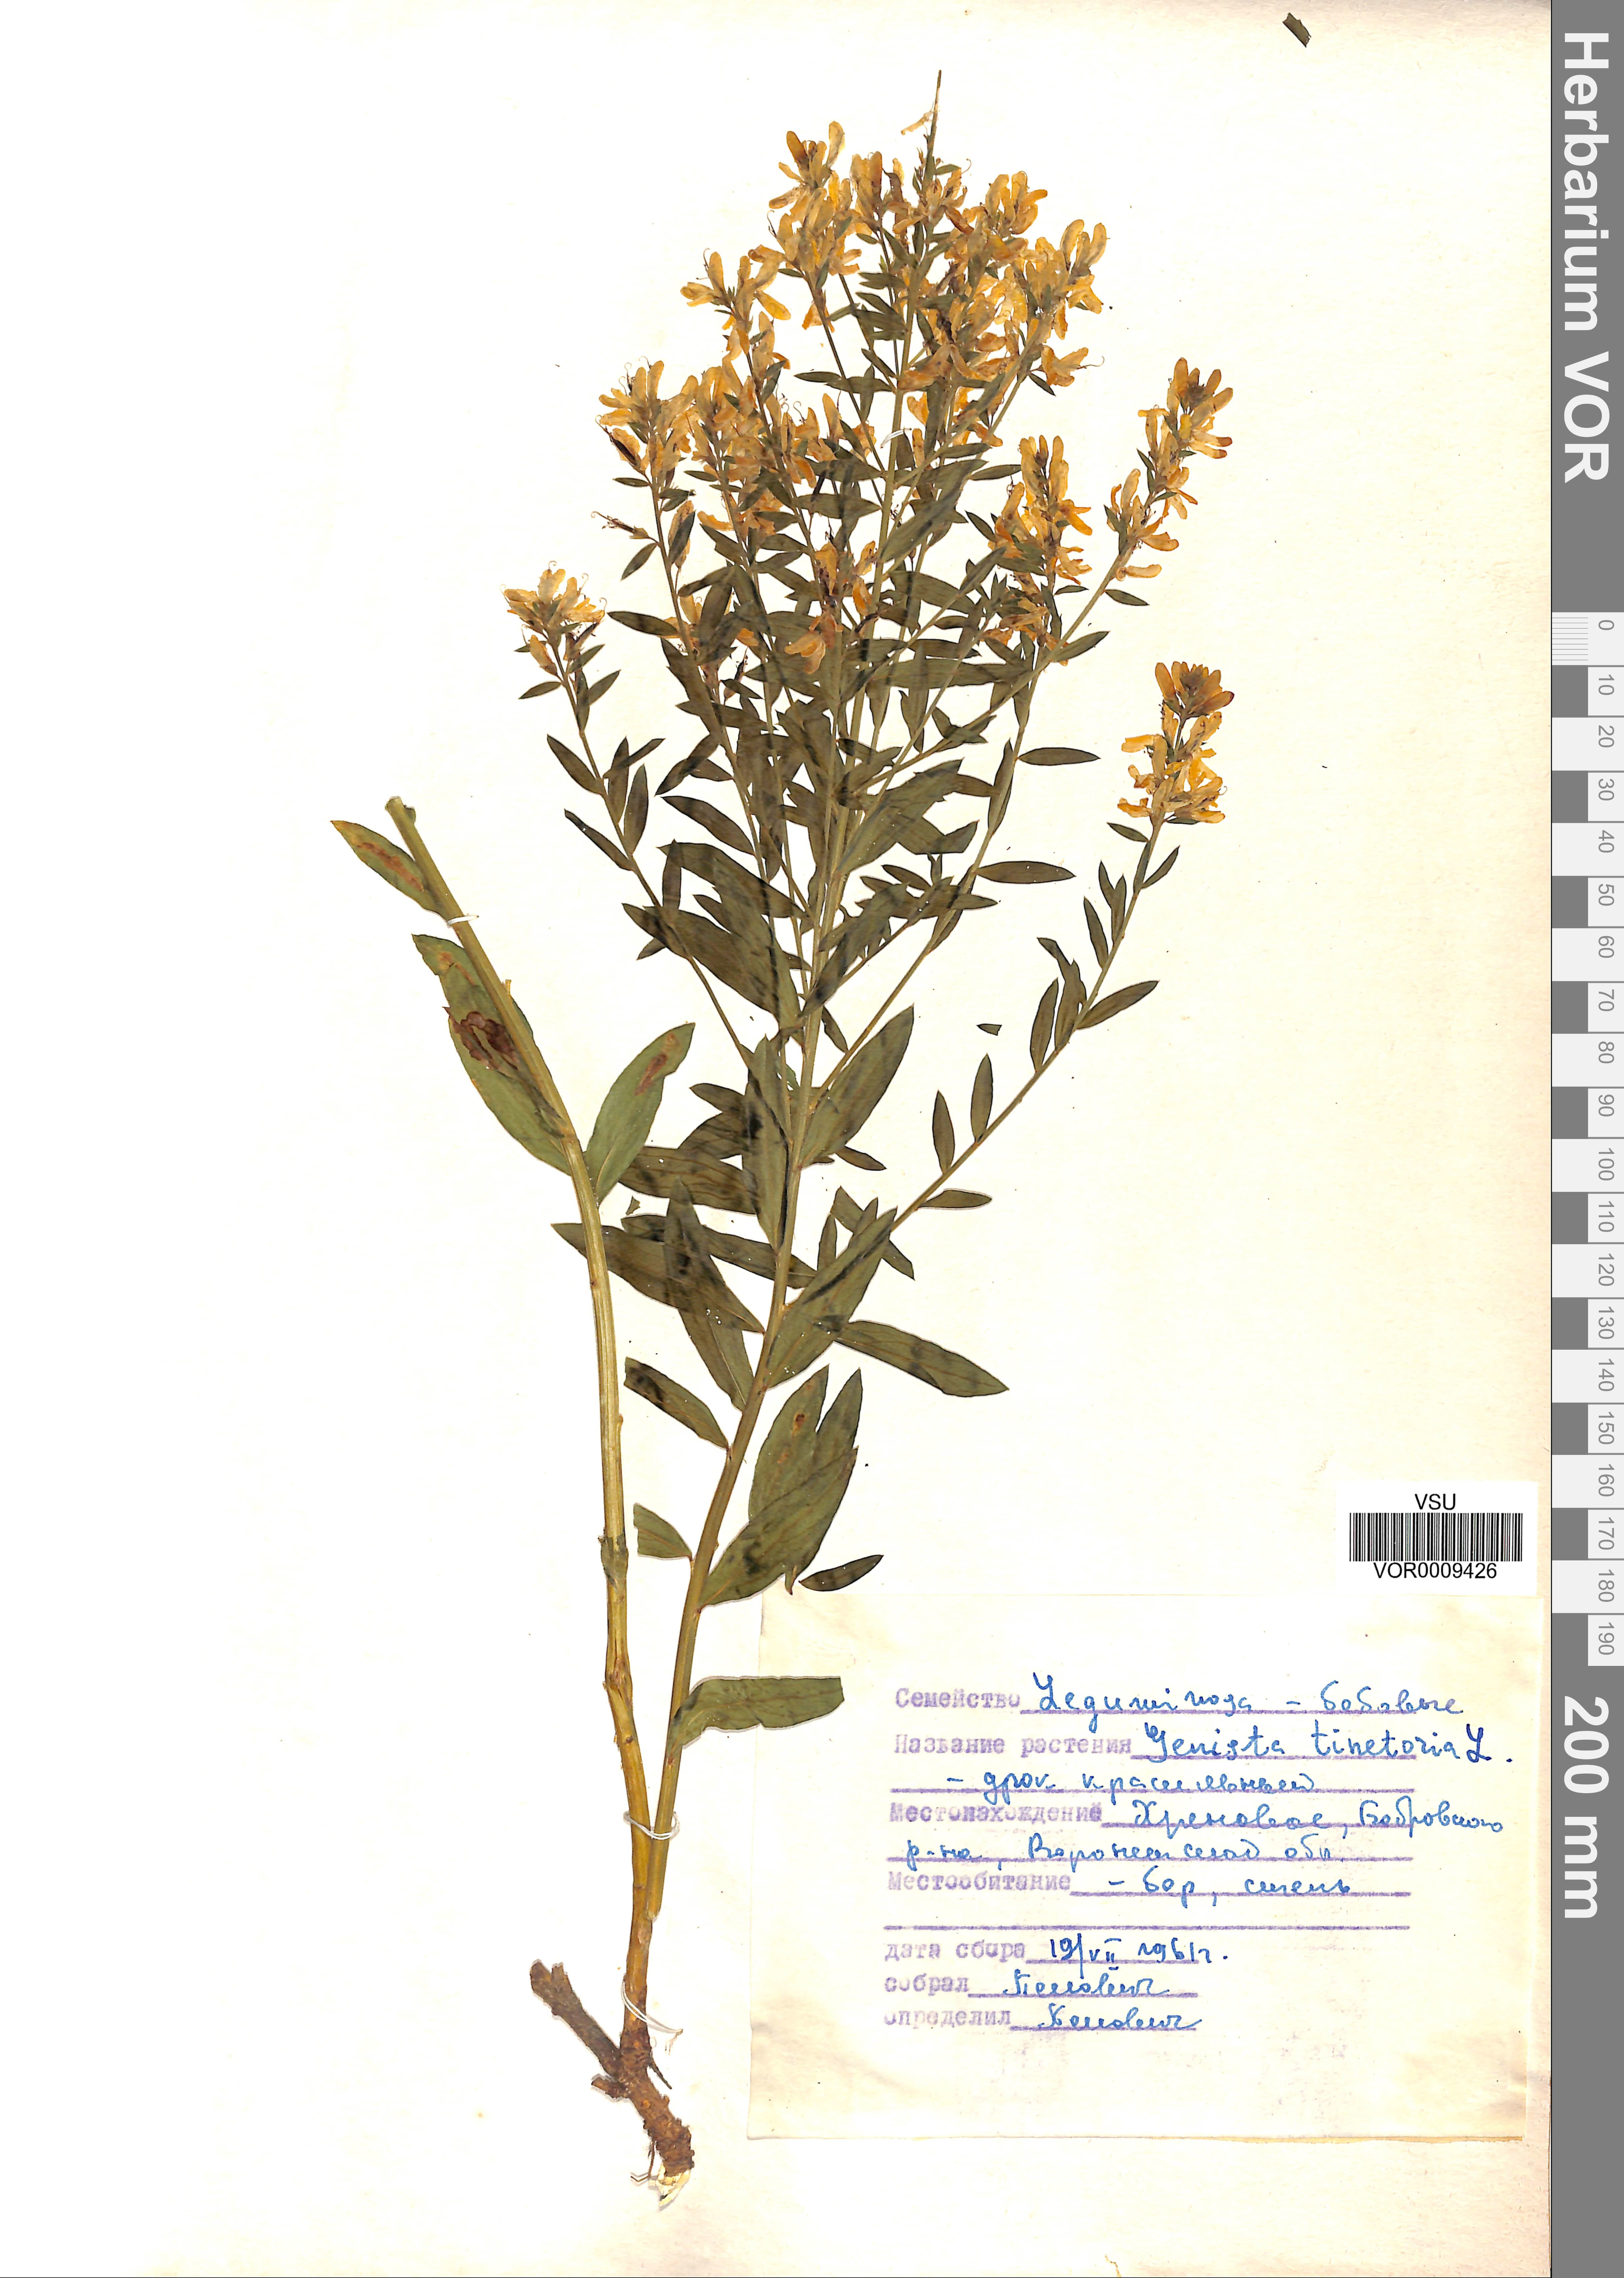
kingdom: Plantae
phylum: Tracheophyta
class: Magnoliopsida
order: Fabales
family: Fabaceae
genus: Genista
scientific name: Genista tinctoria
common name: Dyer's greenweed
